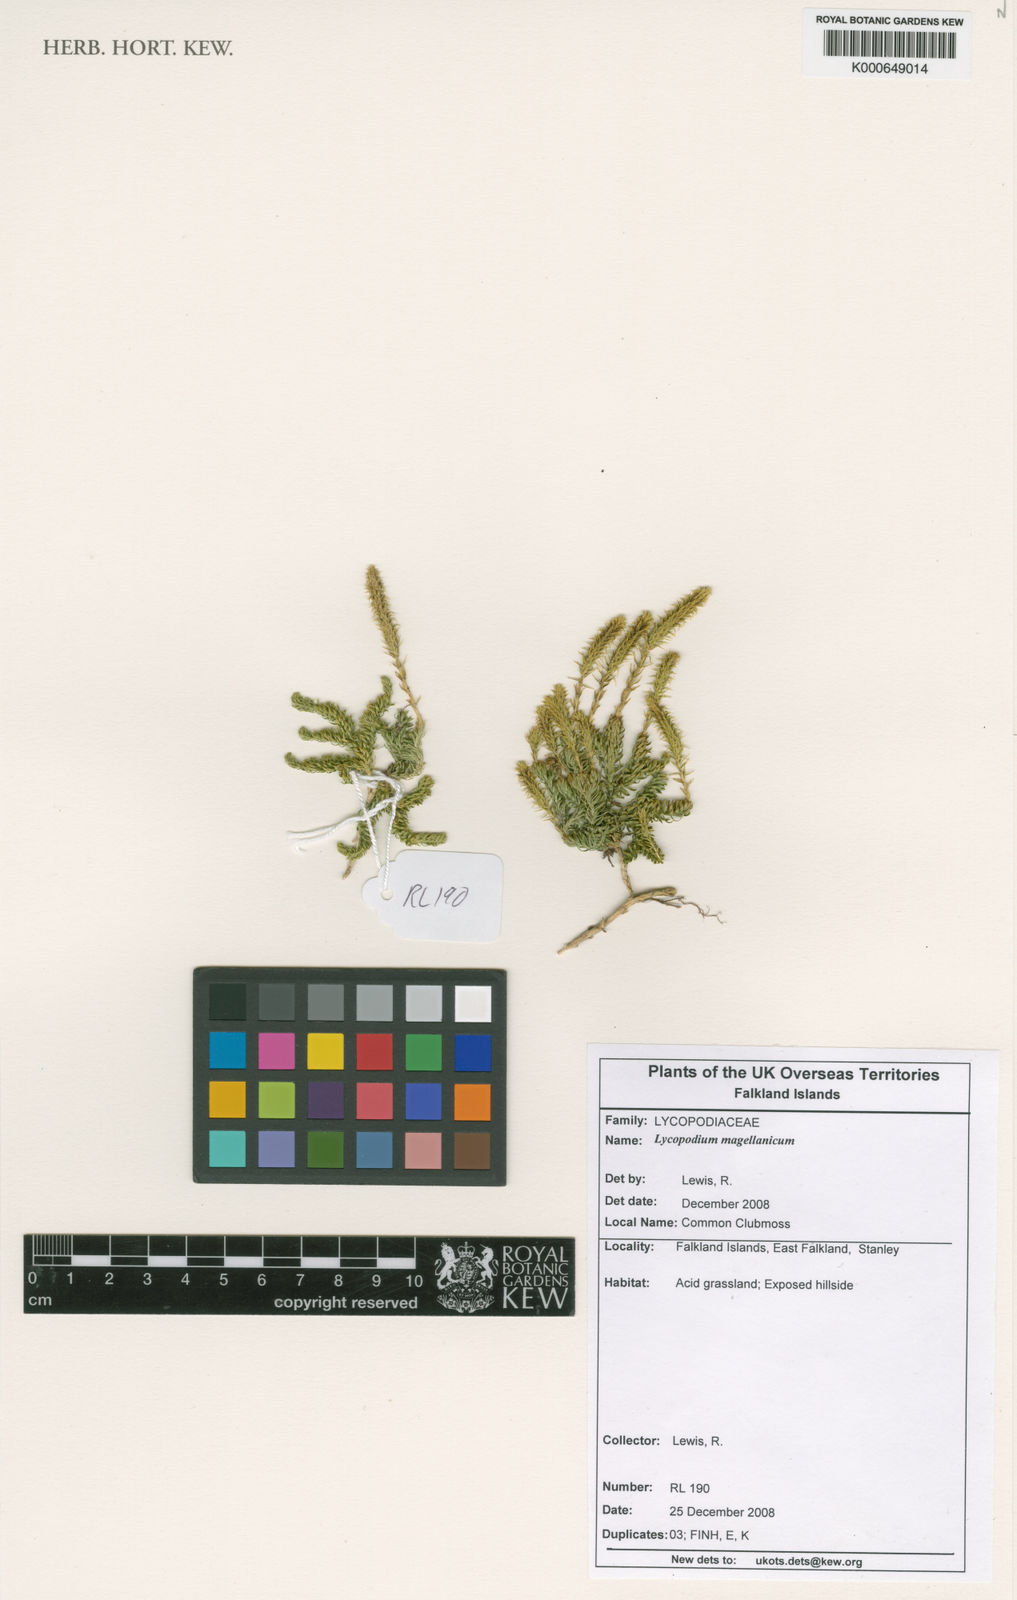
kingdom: Plantae
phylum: Tracheophyta
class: Lycopodiopsida
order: Lycopodiales
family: Lycopodiaceae
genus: Austrolycopodium
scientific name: Austrolycopodium magellanicum
